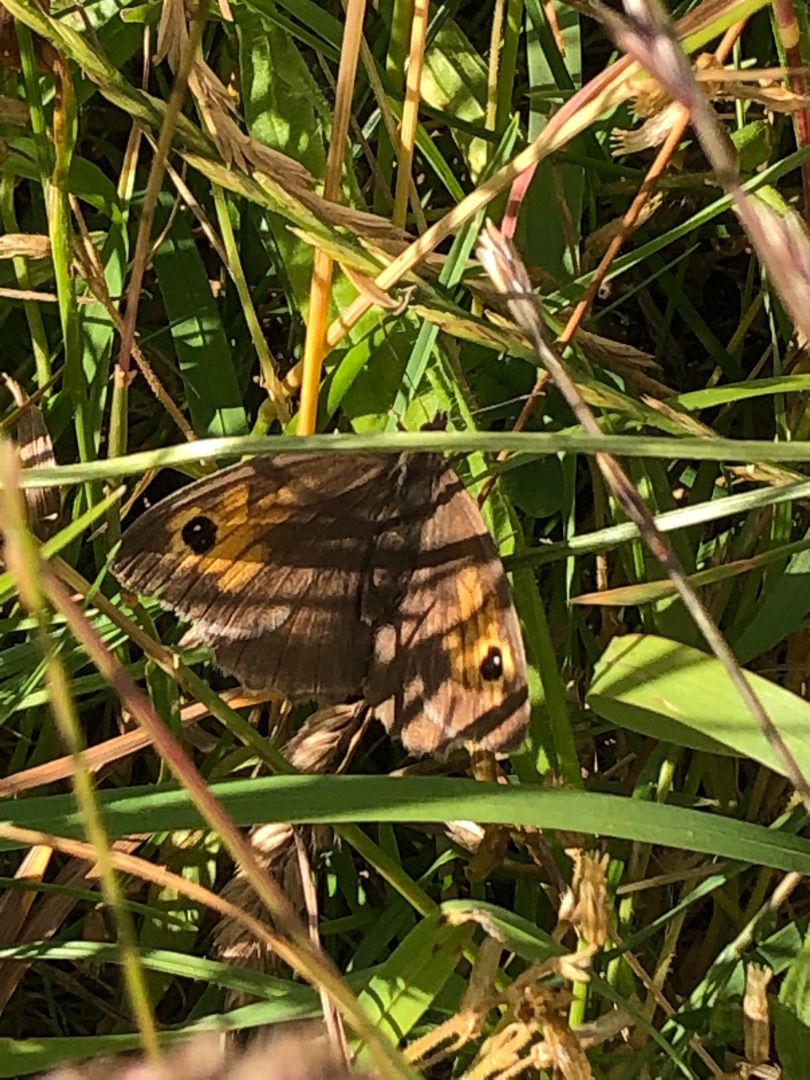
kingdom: Animalia
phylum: Arthropoda
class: Insecta
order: Lepidoptera
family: Nymphalidae
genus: Maniola
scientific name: Maniola jurtina
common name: Græsrandøje
